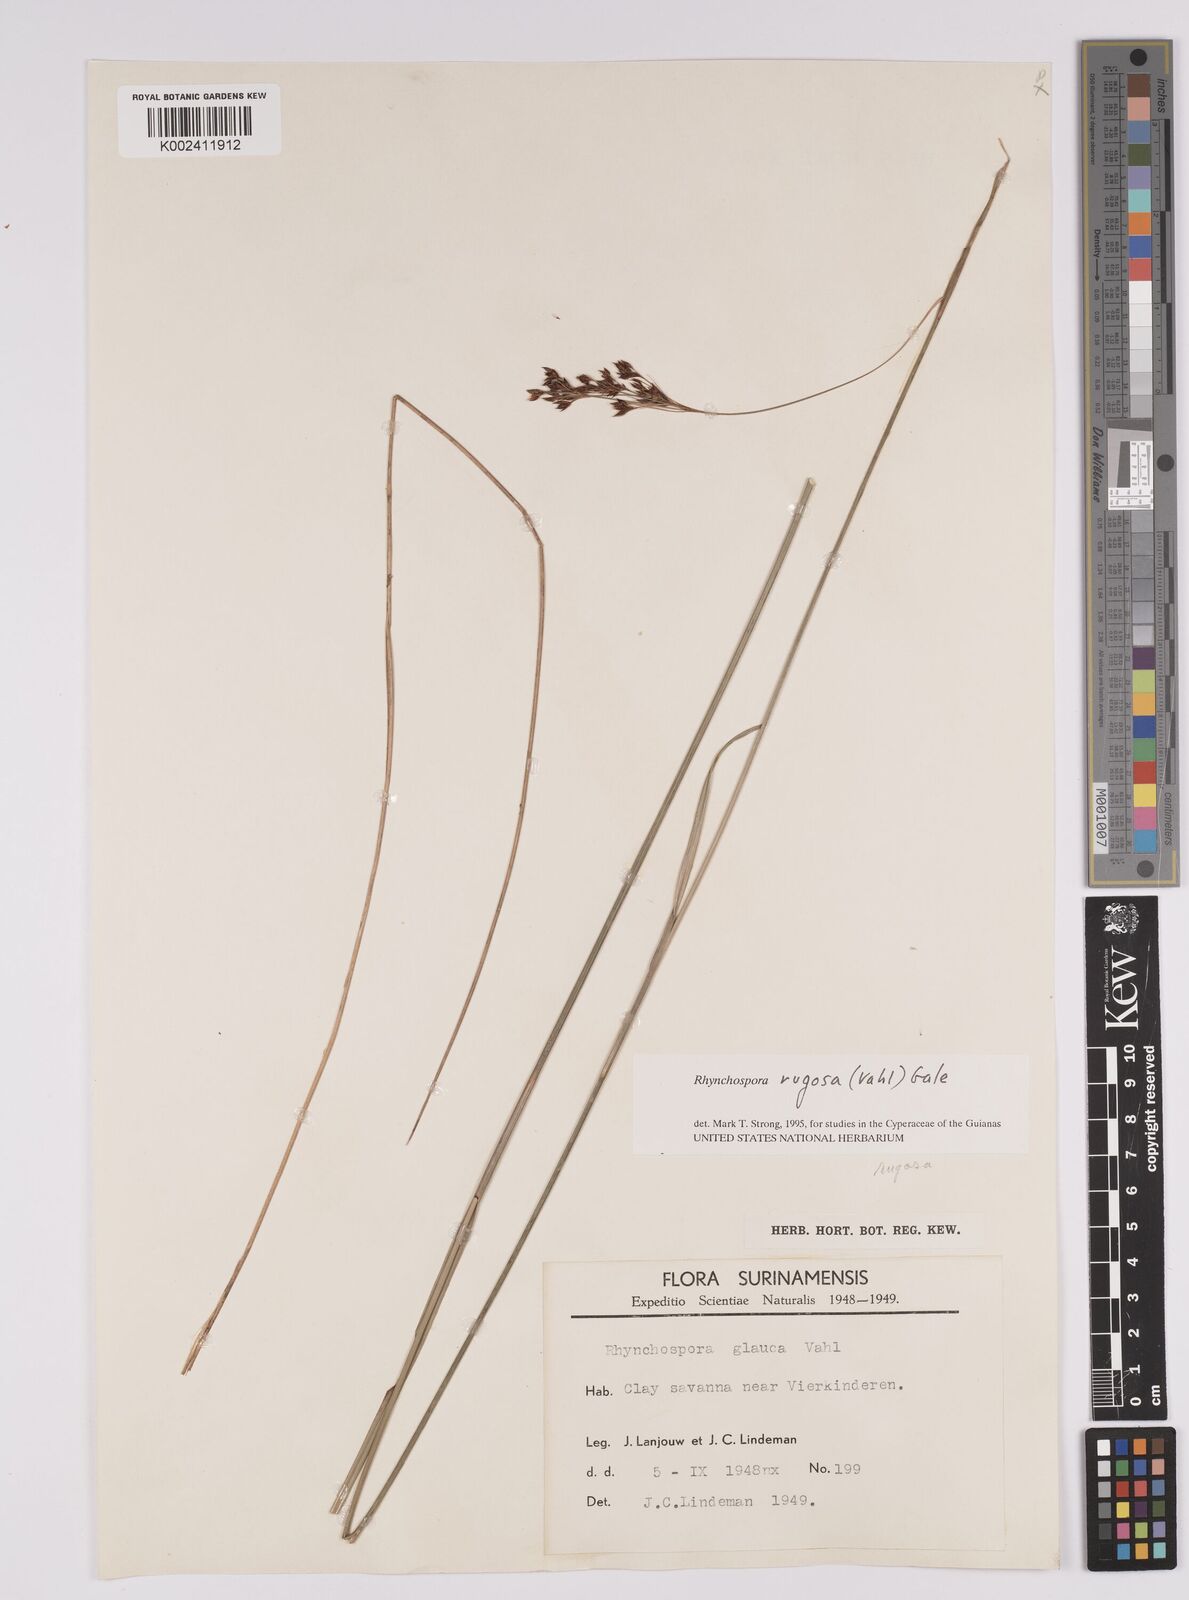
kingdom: Plantae
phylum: Tracheophyta
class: Liliopsida
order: Poales
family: Cyperaceae
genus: Rhynchospora
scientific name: Rhynchospora rugosa
